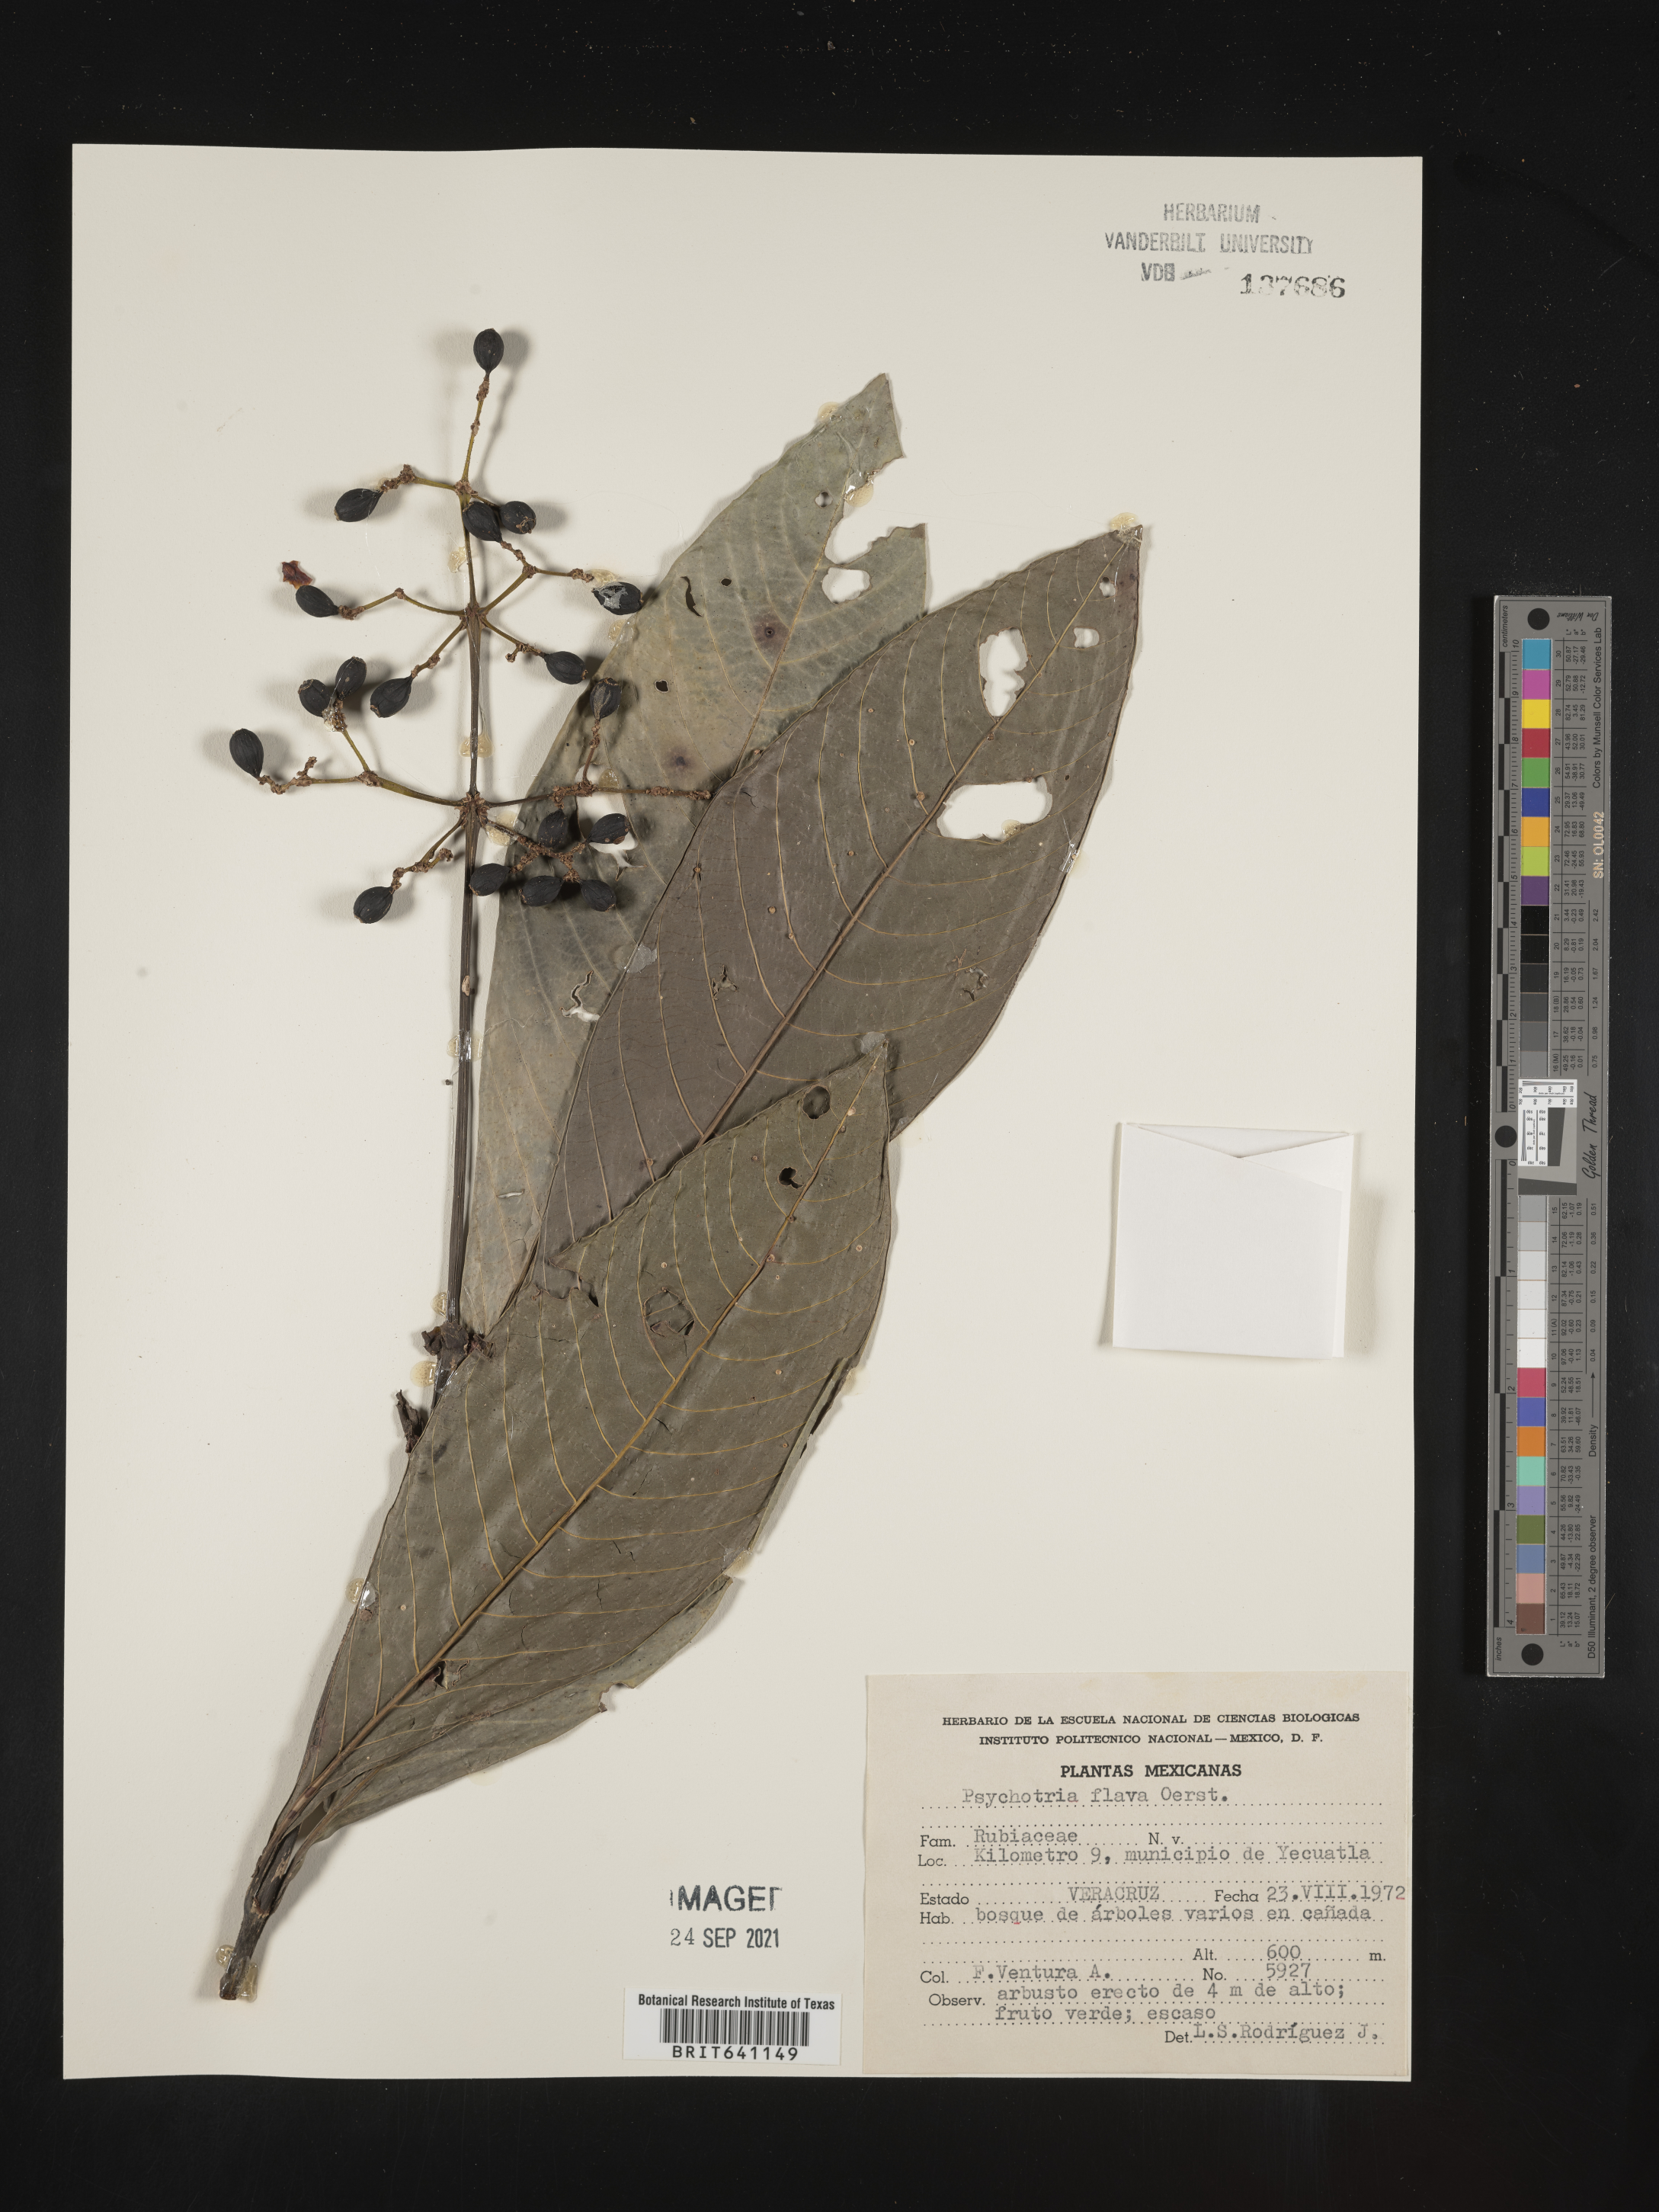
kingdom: Plantae
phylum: Tracheophyta
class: Magnoliopsida
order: Gentianales
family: Rubiaceae
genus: Psychotria
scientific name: Psychotria
